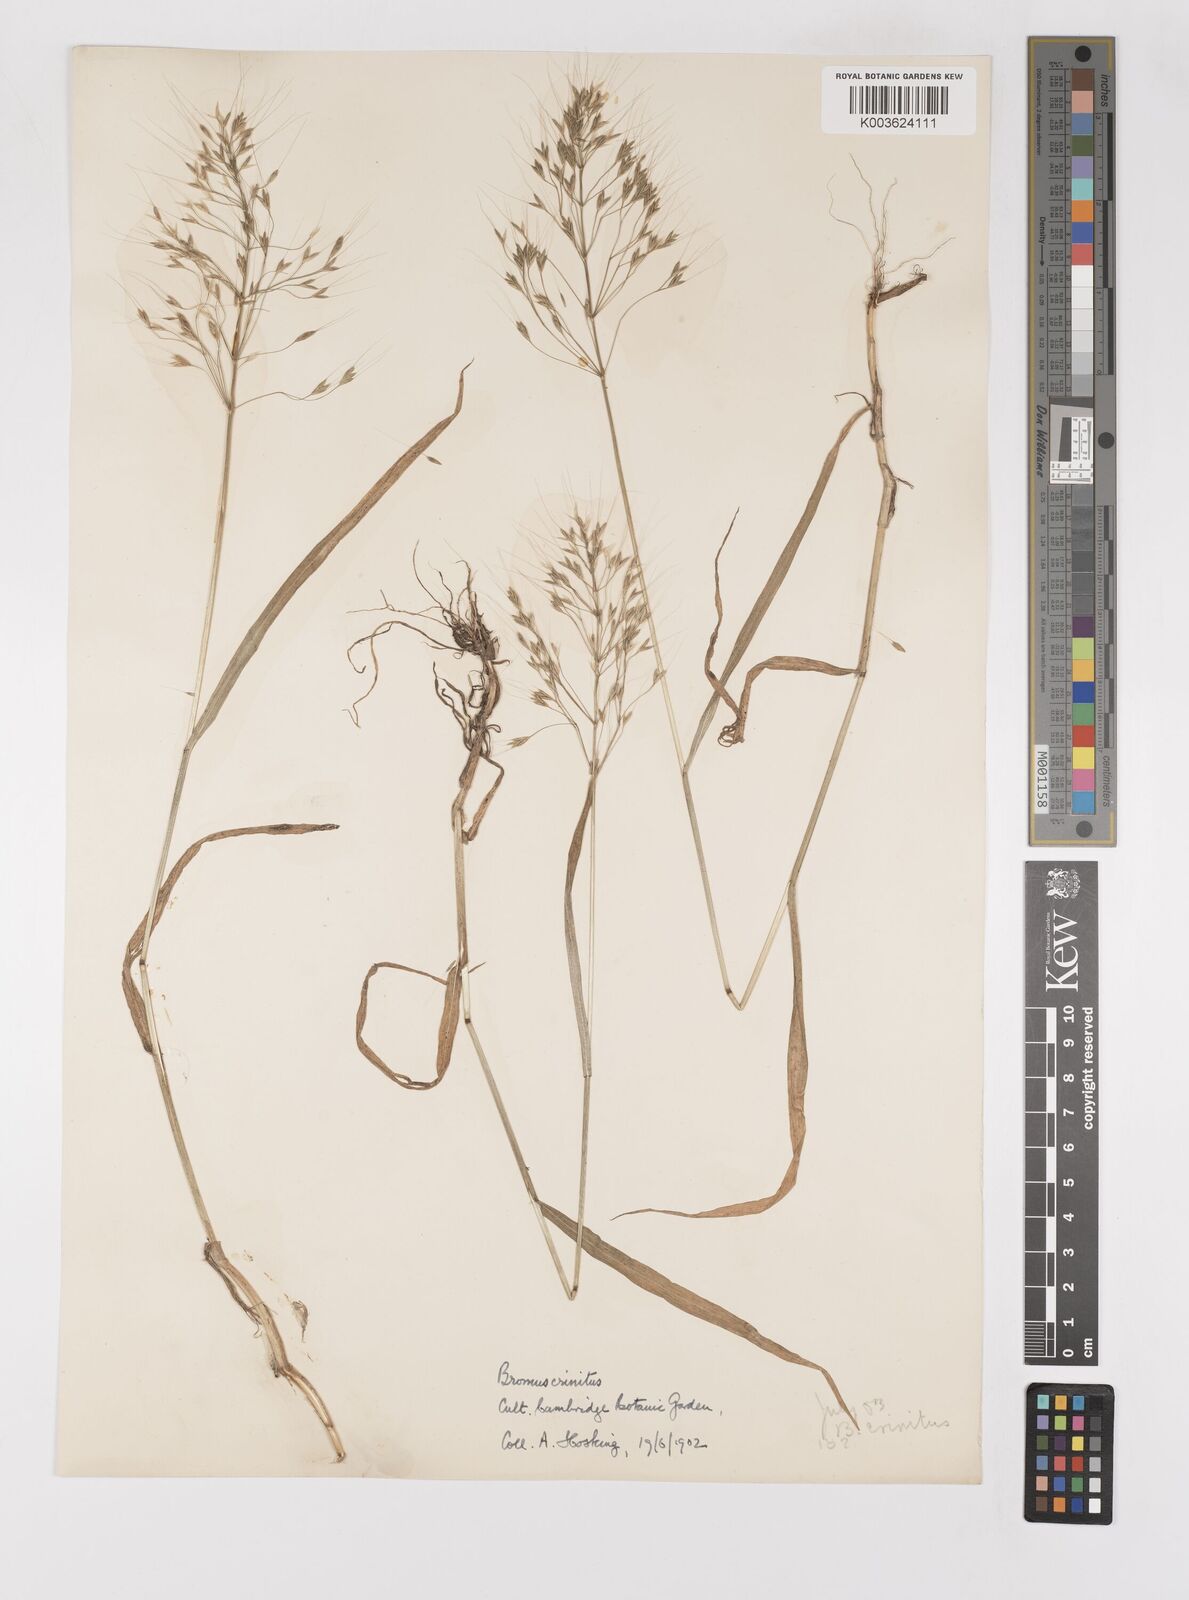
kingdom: Plantae
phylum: Tracheophyta
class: Liliopsida
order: Poales
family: Poaceae
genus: Bromus
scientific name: Bromus gracillimus
